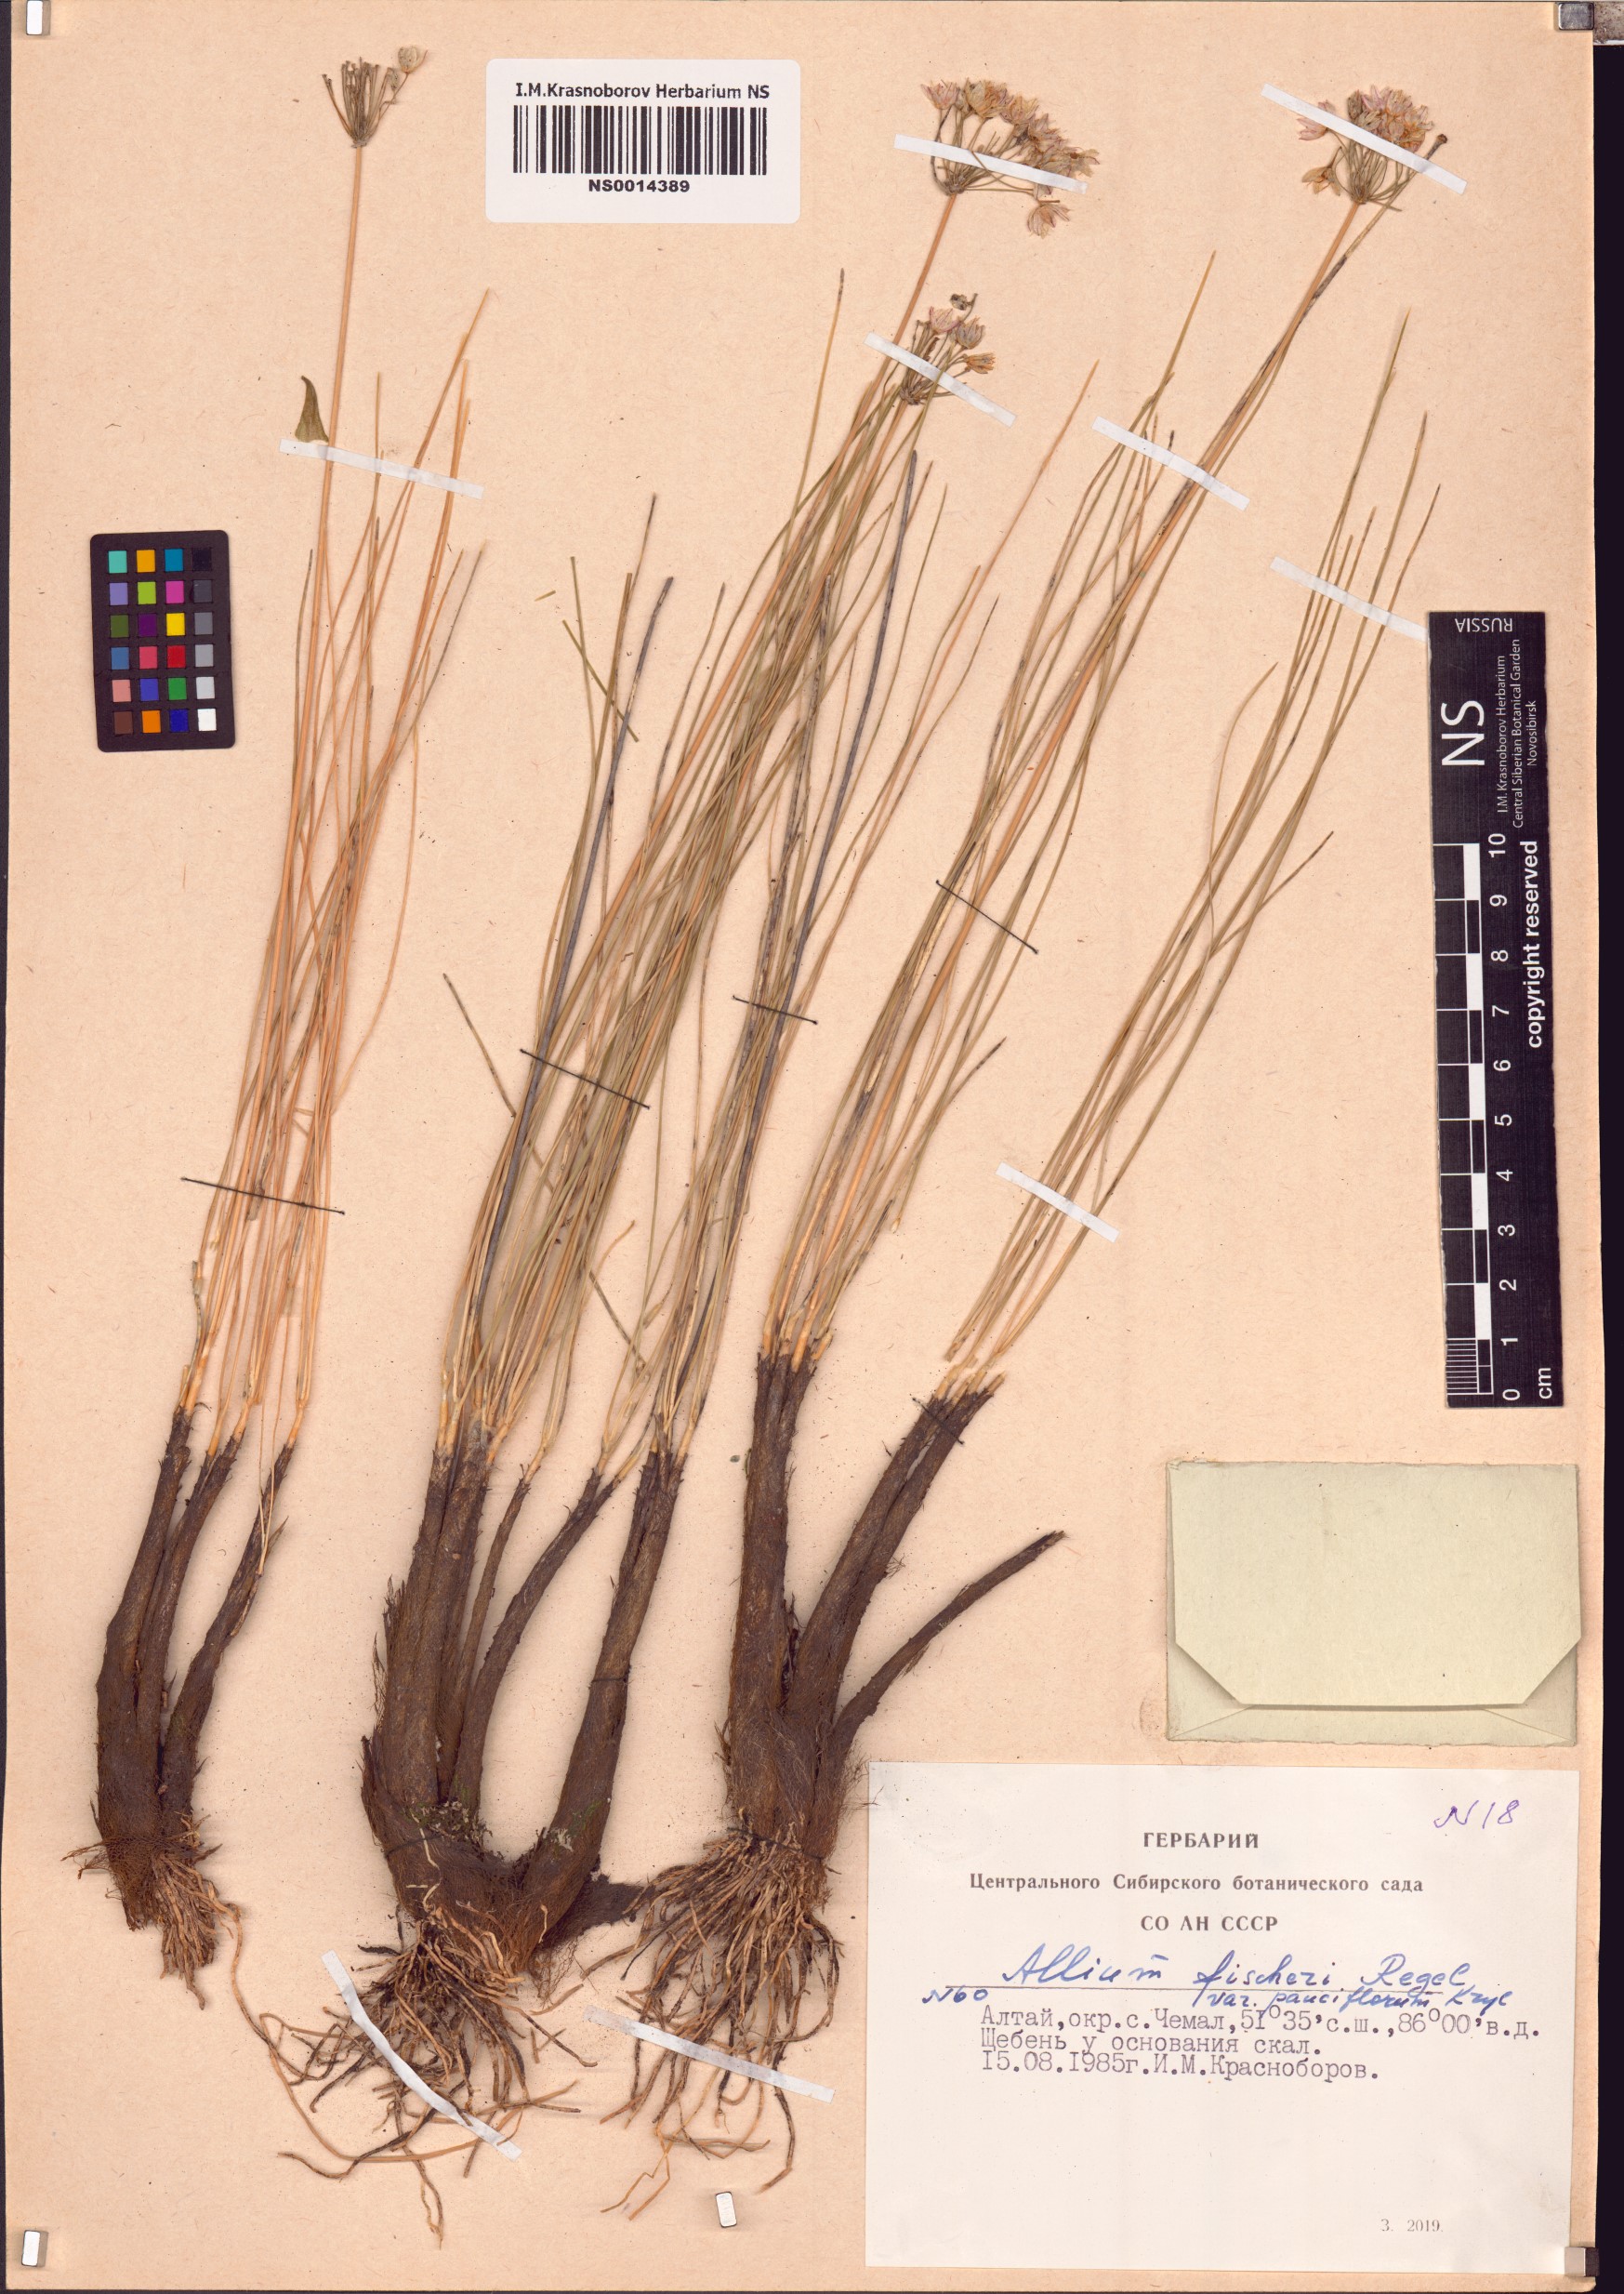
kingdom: Plantae
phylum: Tracheophyta
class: Liliopsida
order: Asparagales
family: Amaryllidaceae
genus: Allium
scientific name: Allium fischeri
